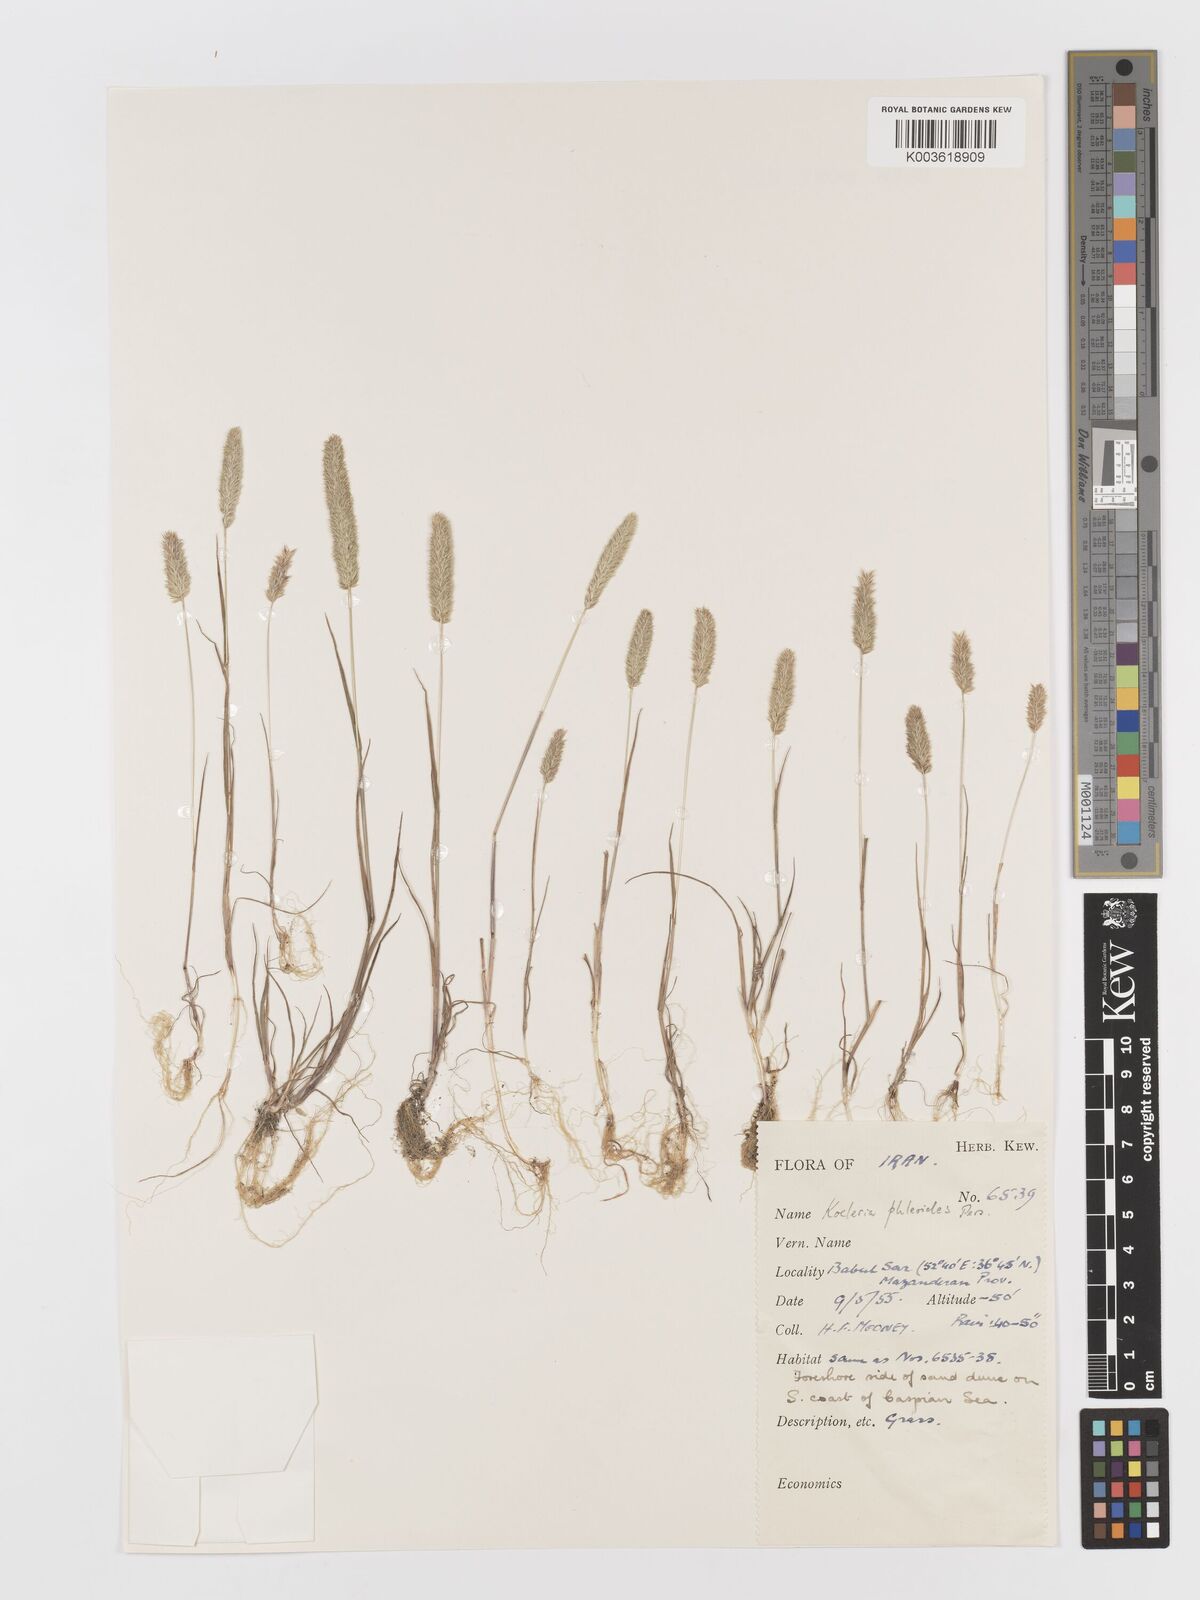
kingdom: Plantae
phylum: Tracheophyta
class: Liliopsida
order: Poales
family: Poaceae
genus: Rostraria
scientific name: Rostraria cristata
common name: Mediterranean hair-grass
